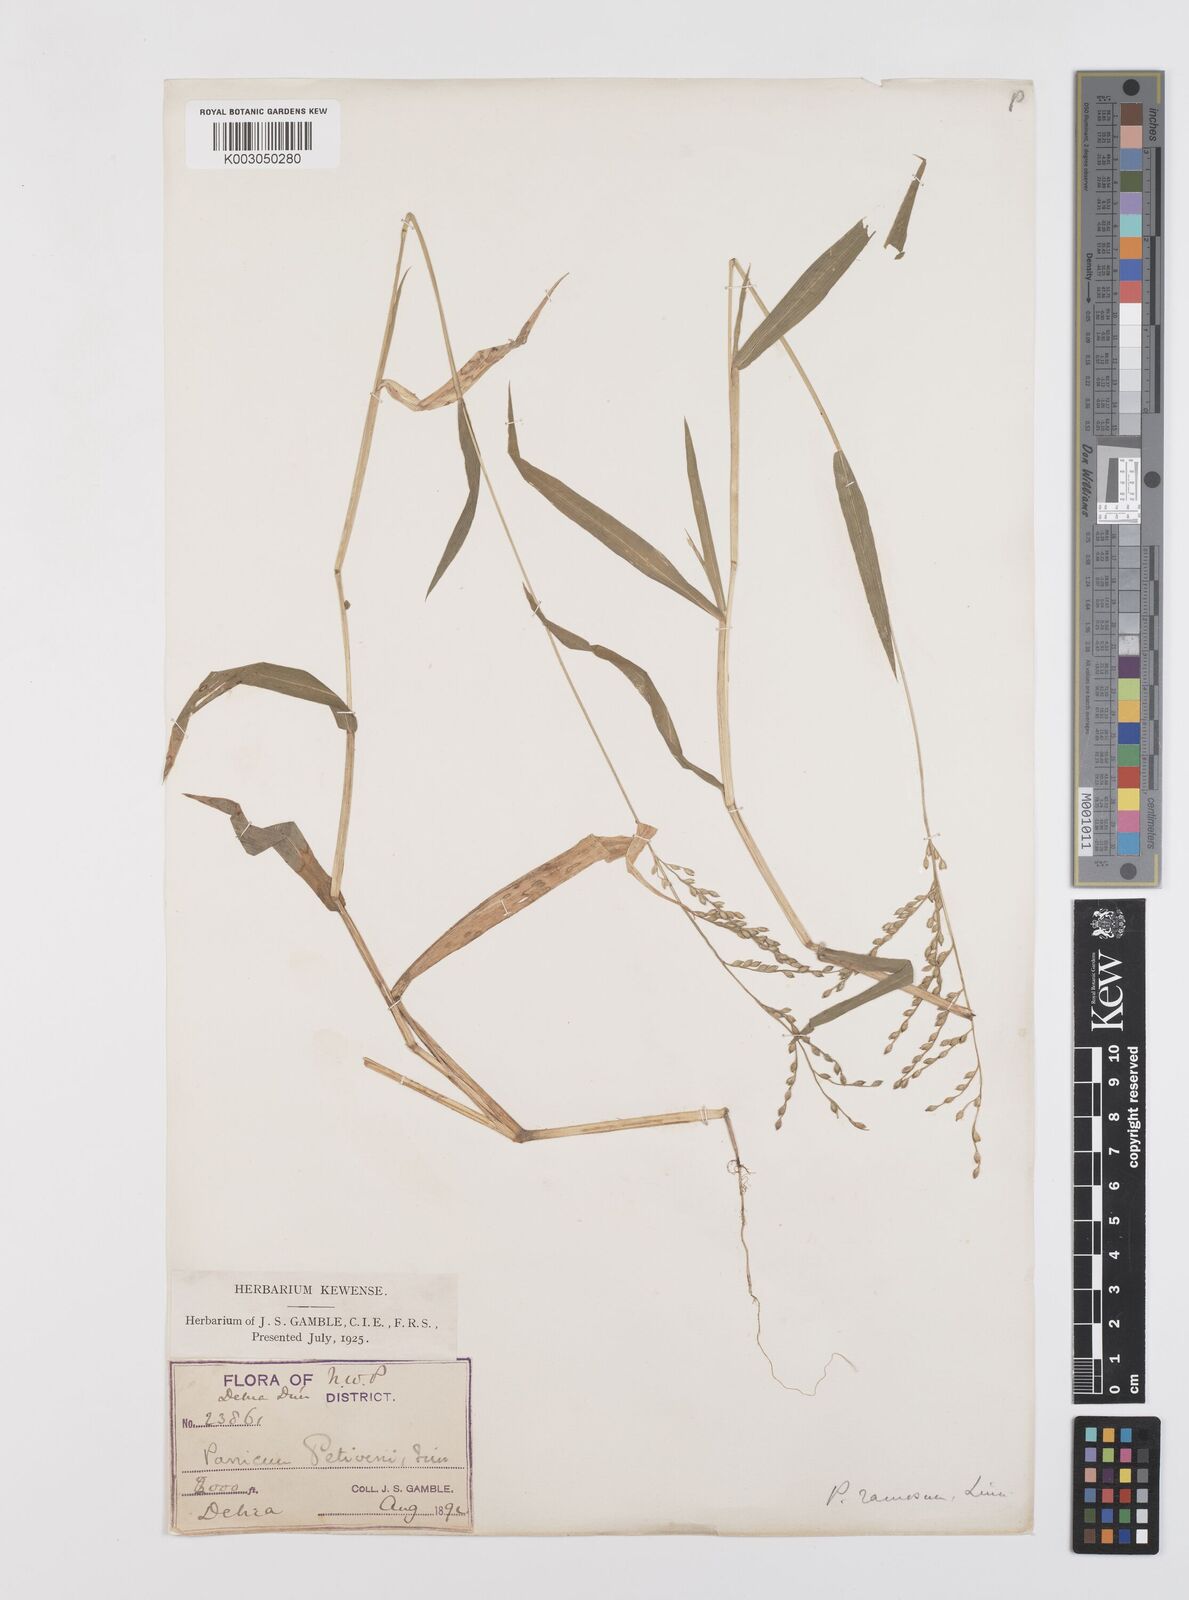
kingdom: Plantae
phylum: Tracheophyta
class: Liliopsida
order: Poales
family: Poaceae
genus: Urochloa
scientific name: Urochloa ramosa
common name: Browntop millet
